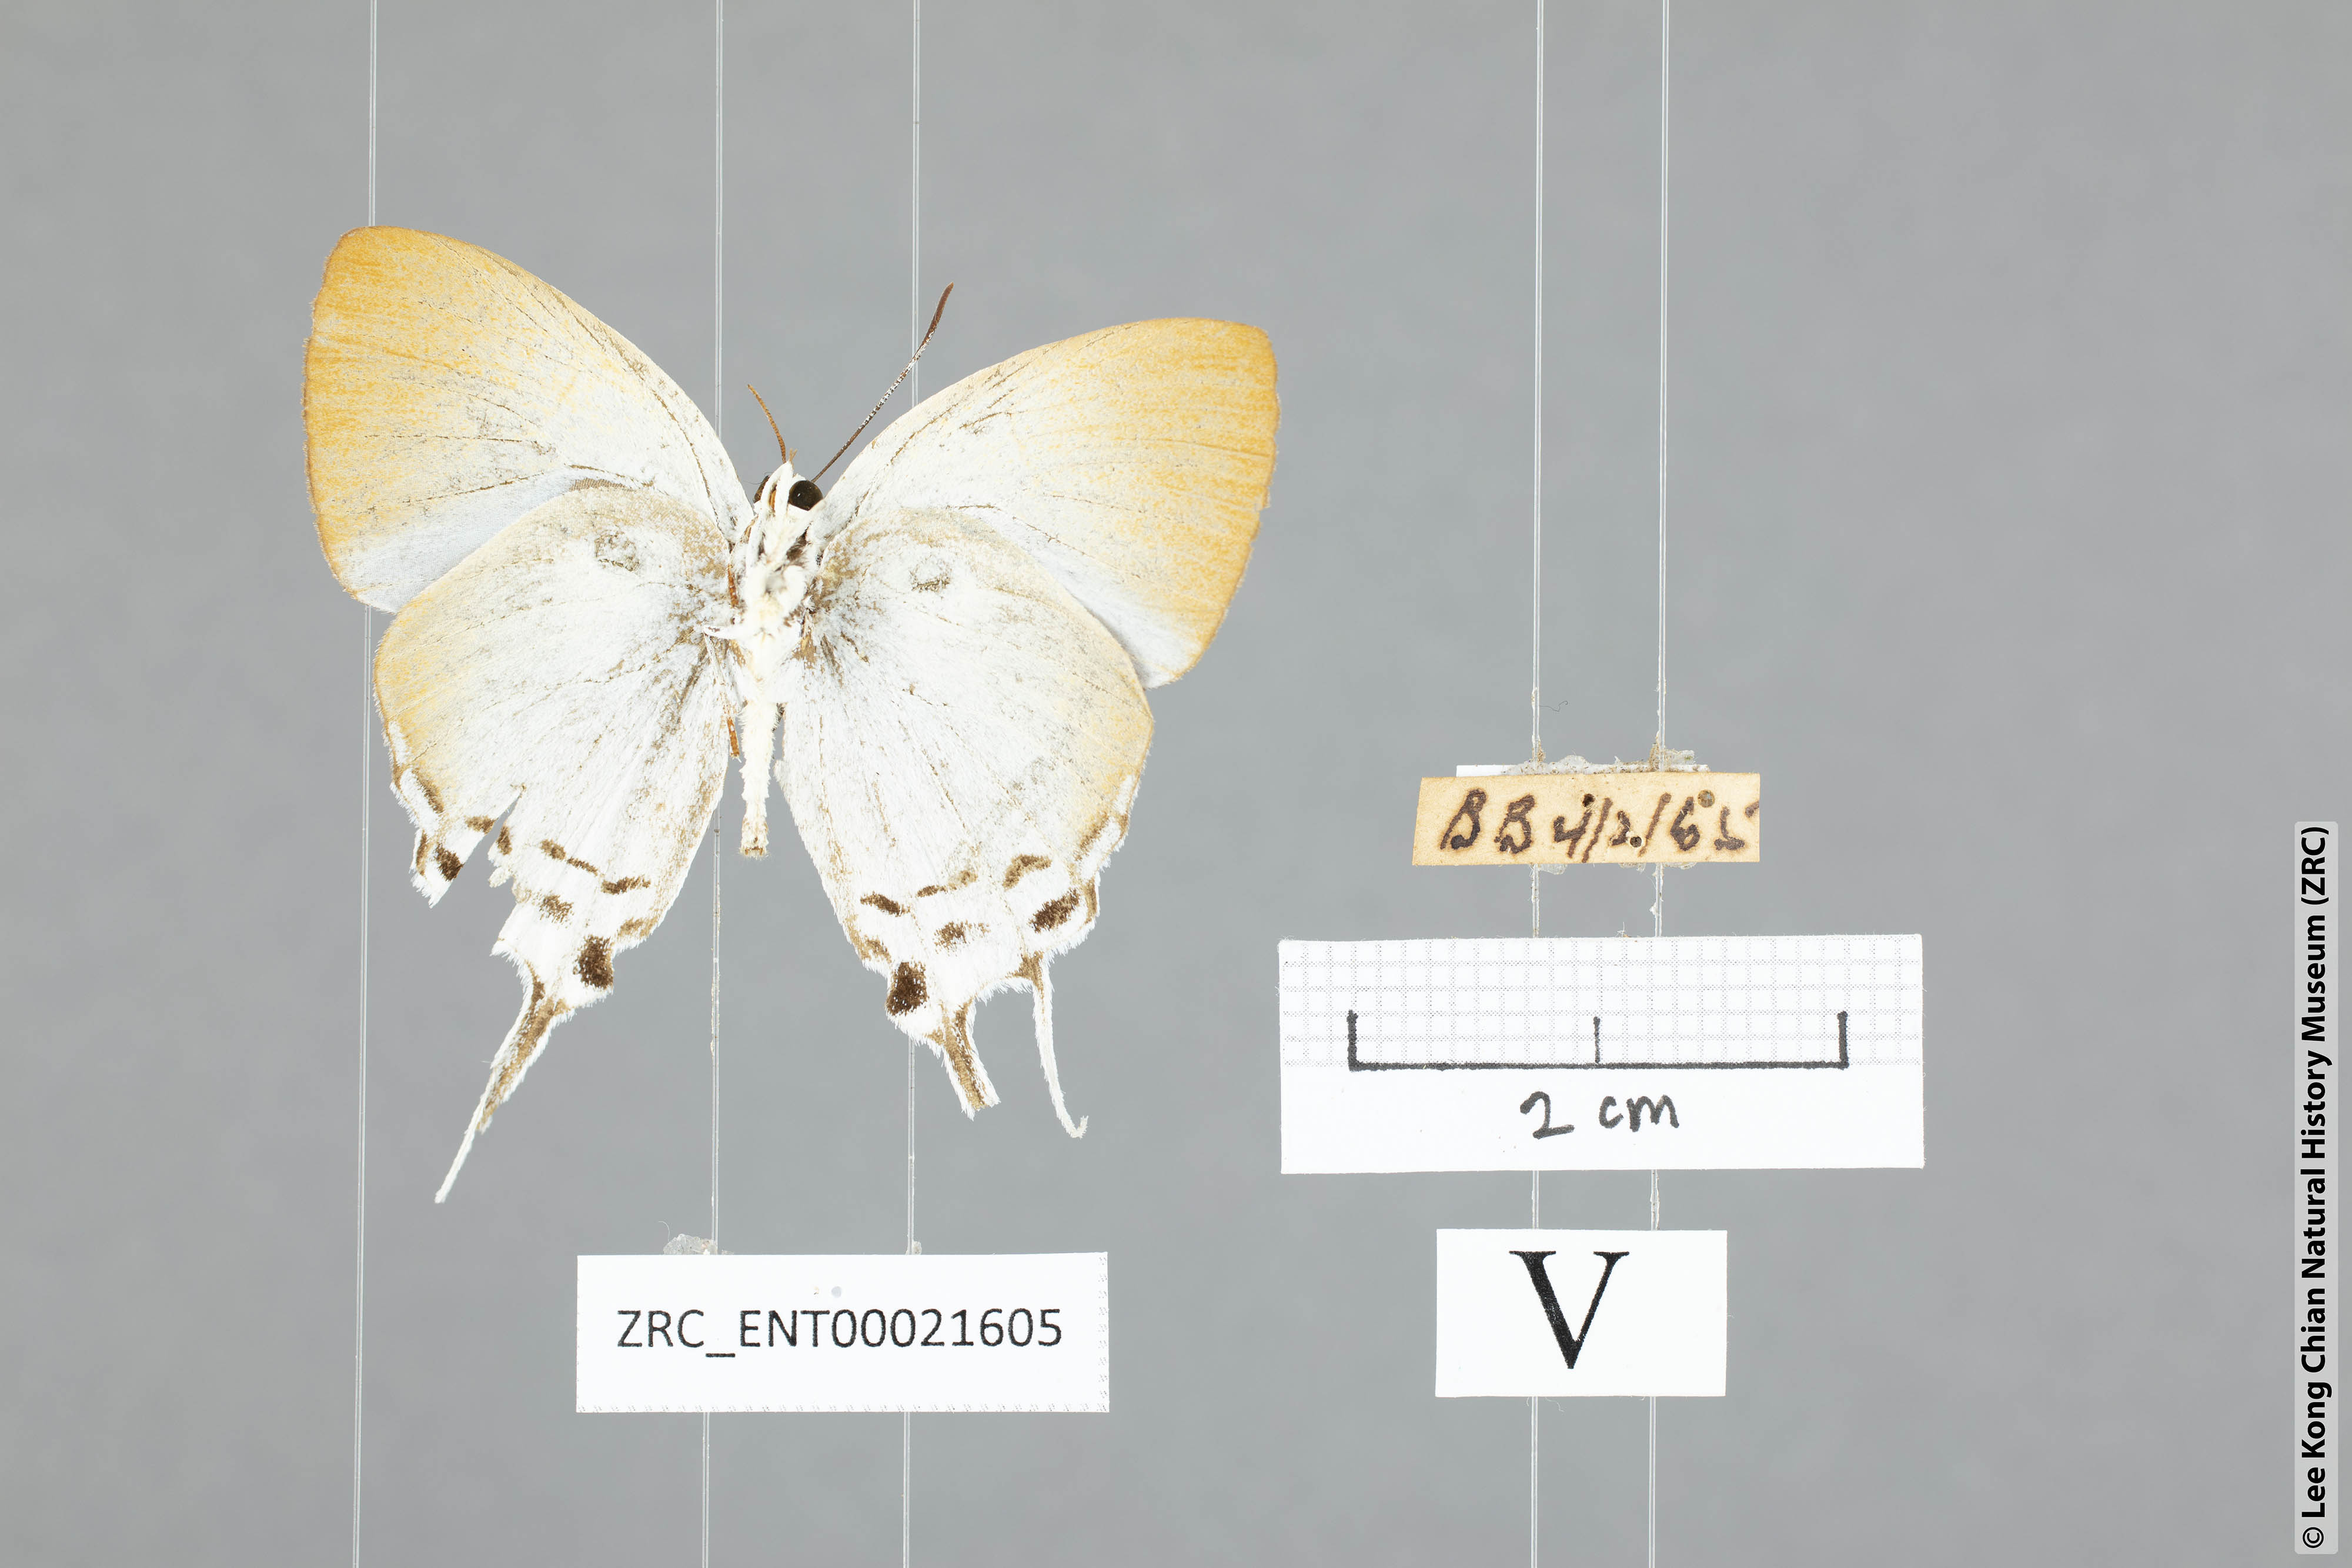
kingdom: Animalia
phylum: Arthropoda
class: Insecta
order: Lepidoptera
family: Lycaenidae
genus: Neocheritra
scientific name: Neocheritra amrita
